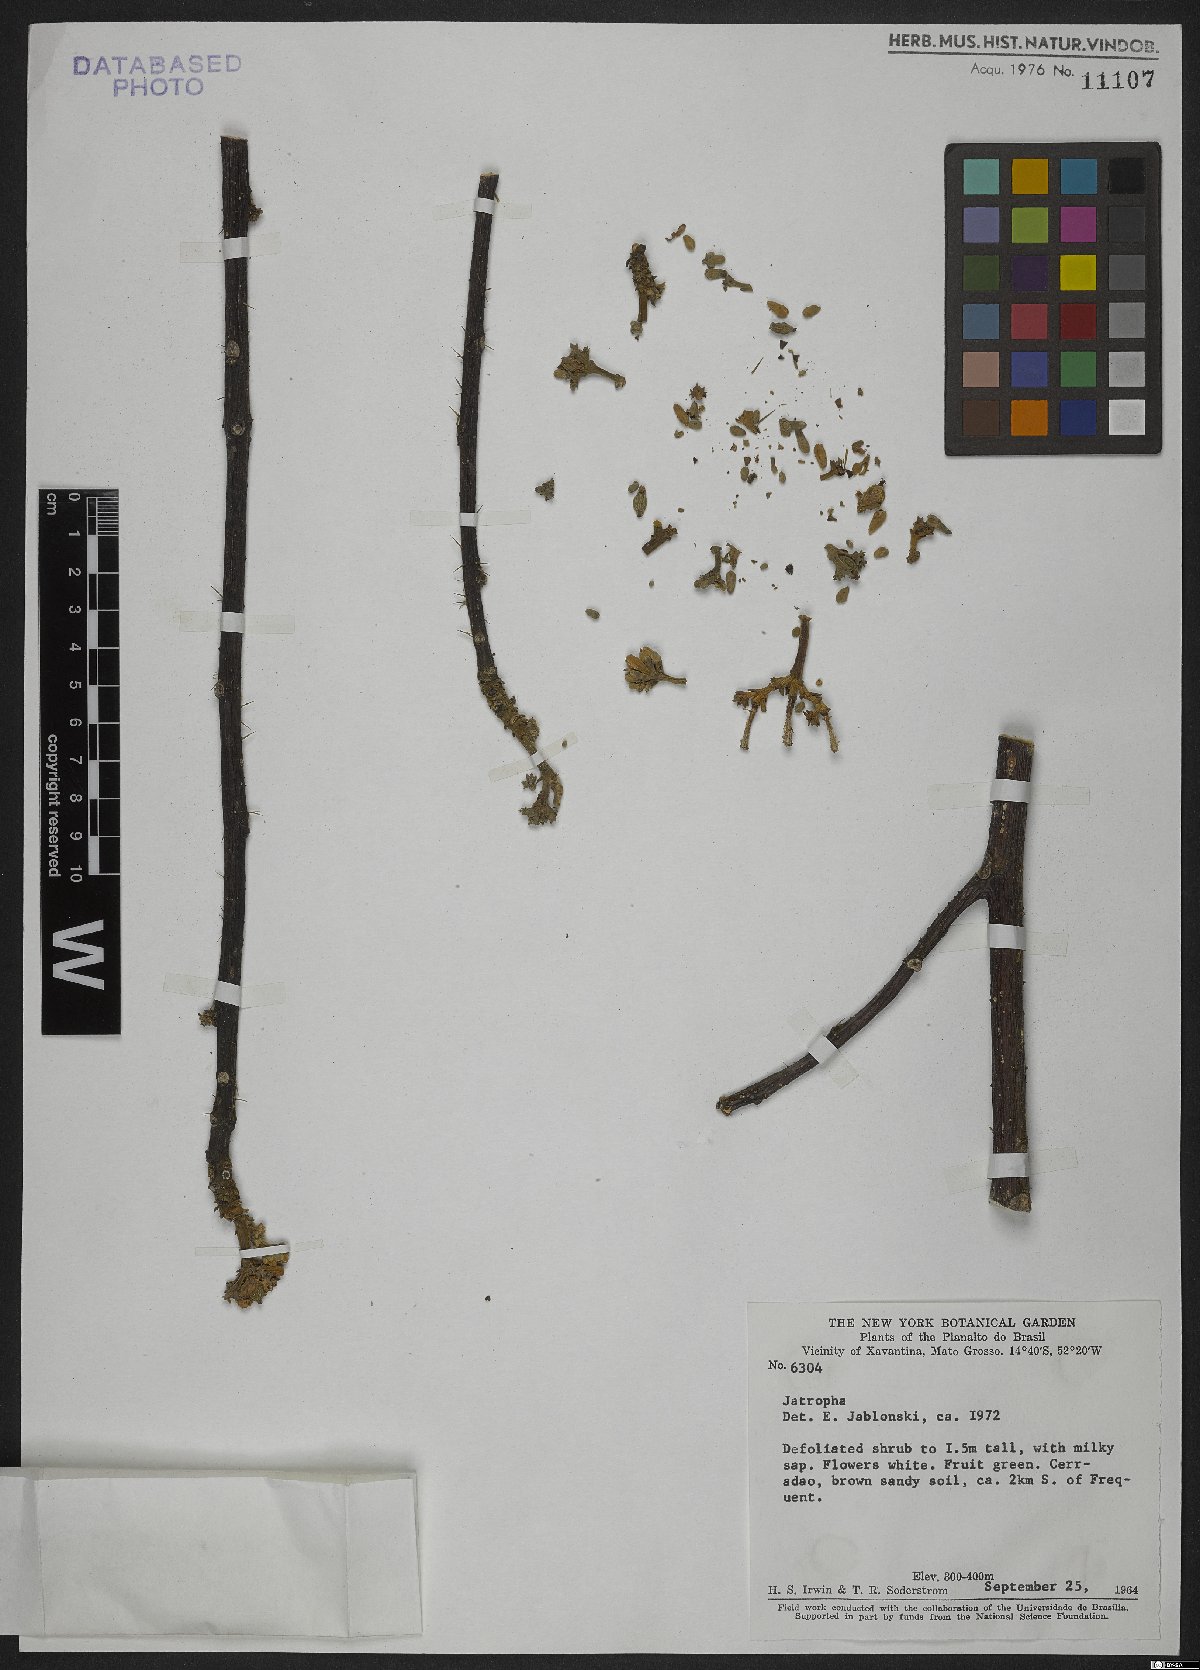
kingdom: Plantae
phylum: Tracheophyta
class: Magnoliopsida
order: Malpighiales
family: Euphorbiaceae
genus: Jatropha
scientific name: Jatropha
